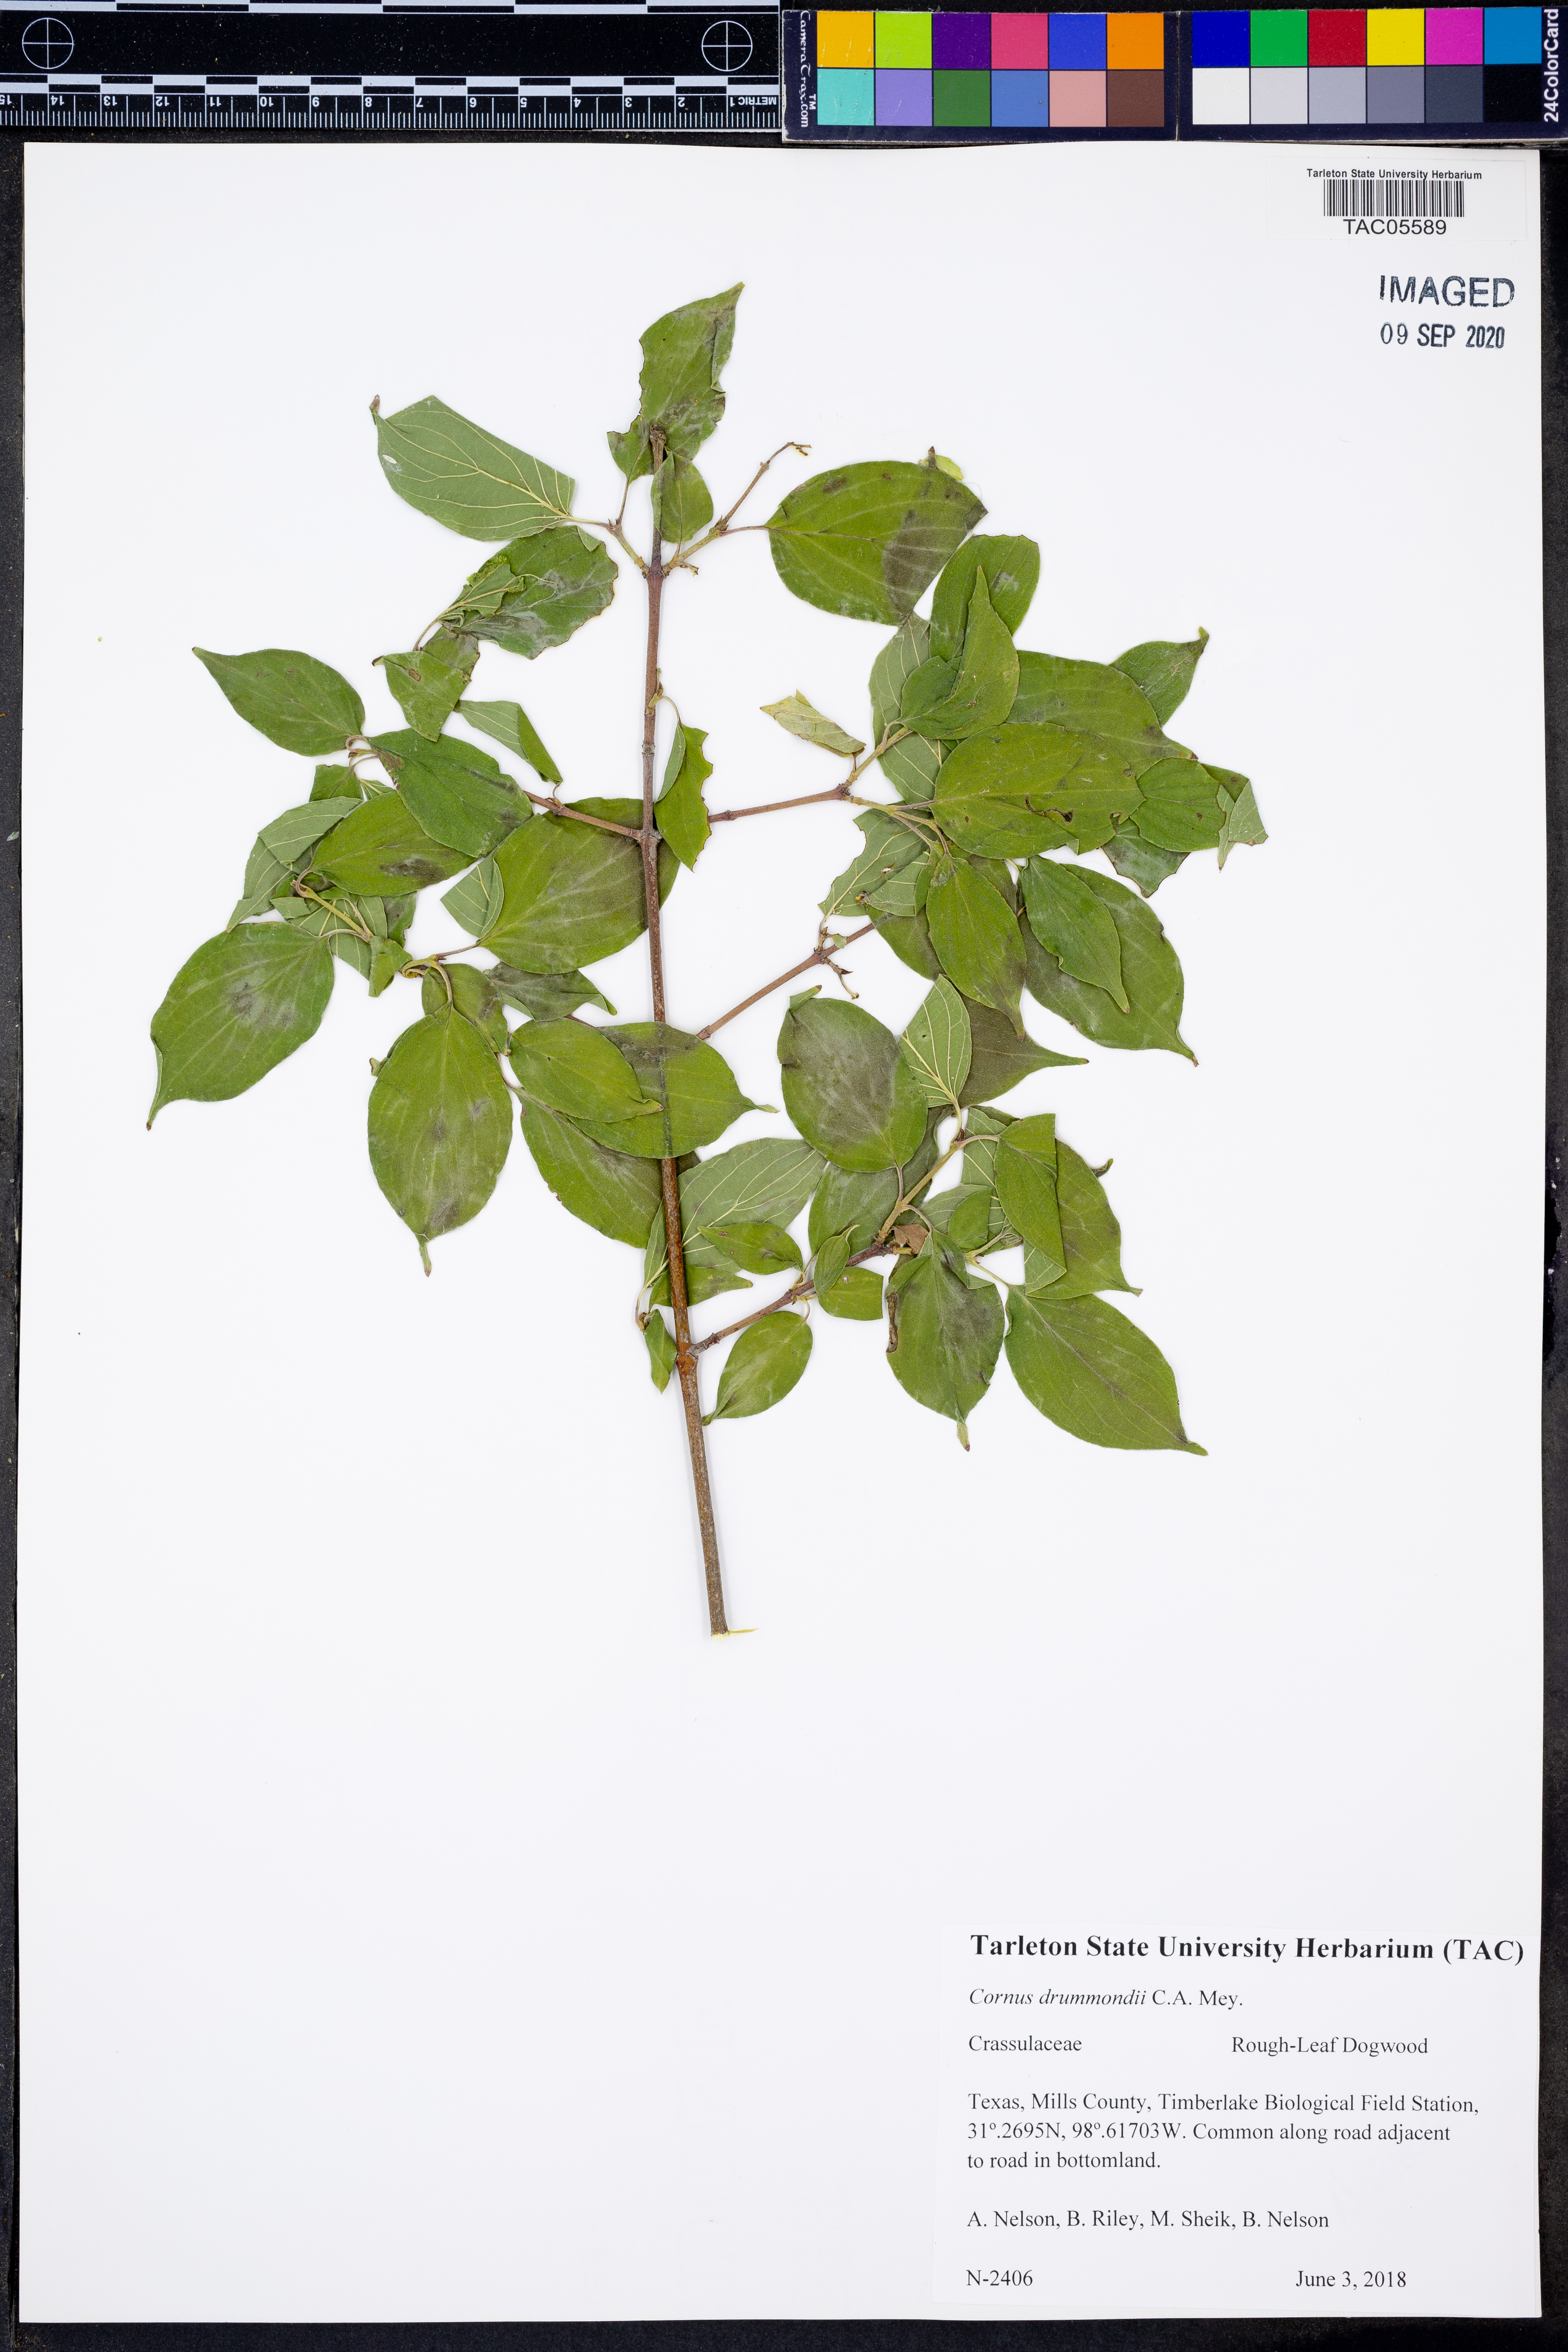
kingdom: Plantae
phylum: Tracheophyta
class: Magnoliopsida
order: Cornales
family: Cornaceae
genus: Cornus
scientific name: Cornus drummondii
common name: Rough-leaf dogwood
